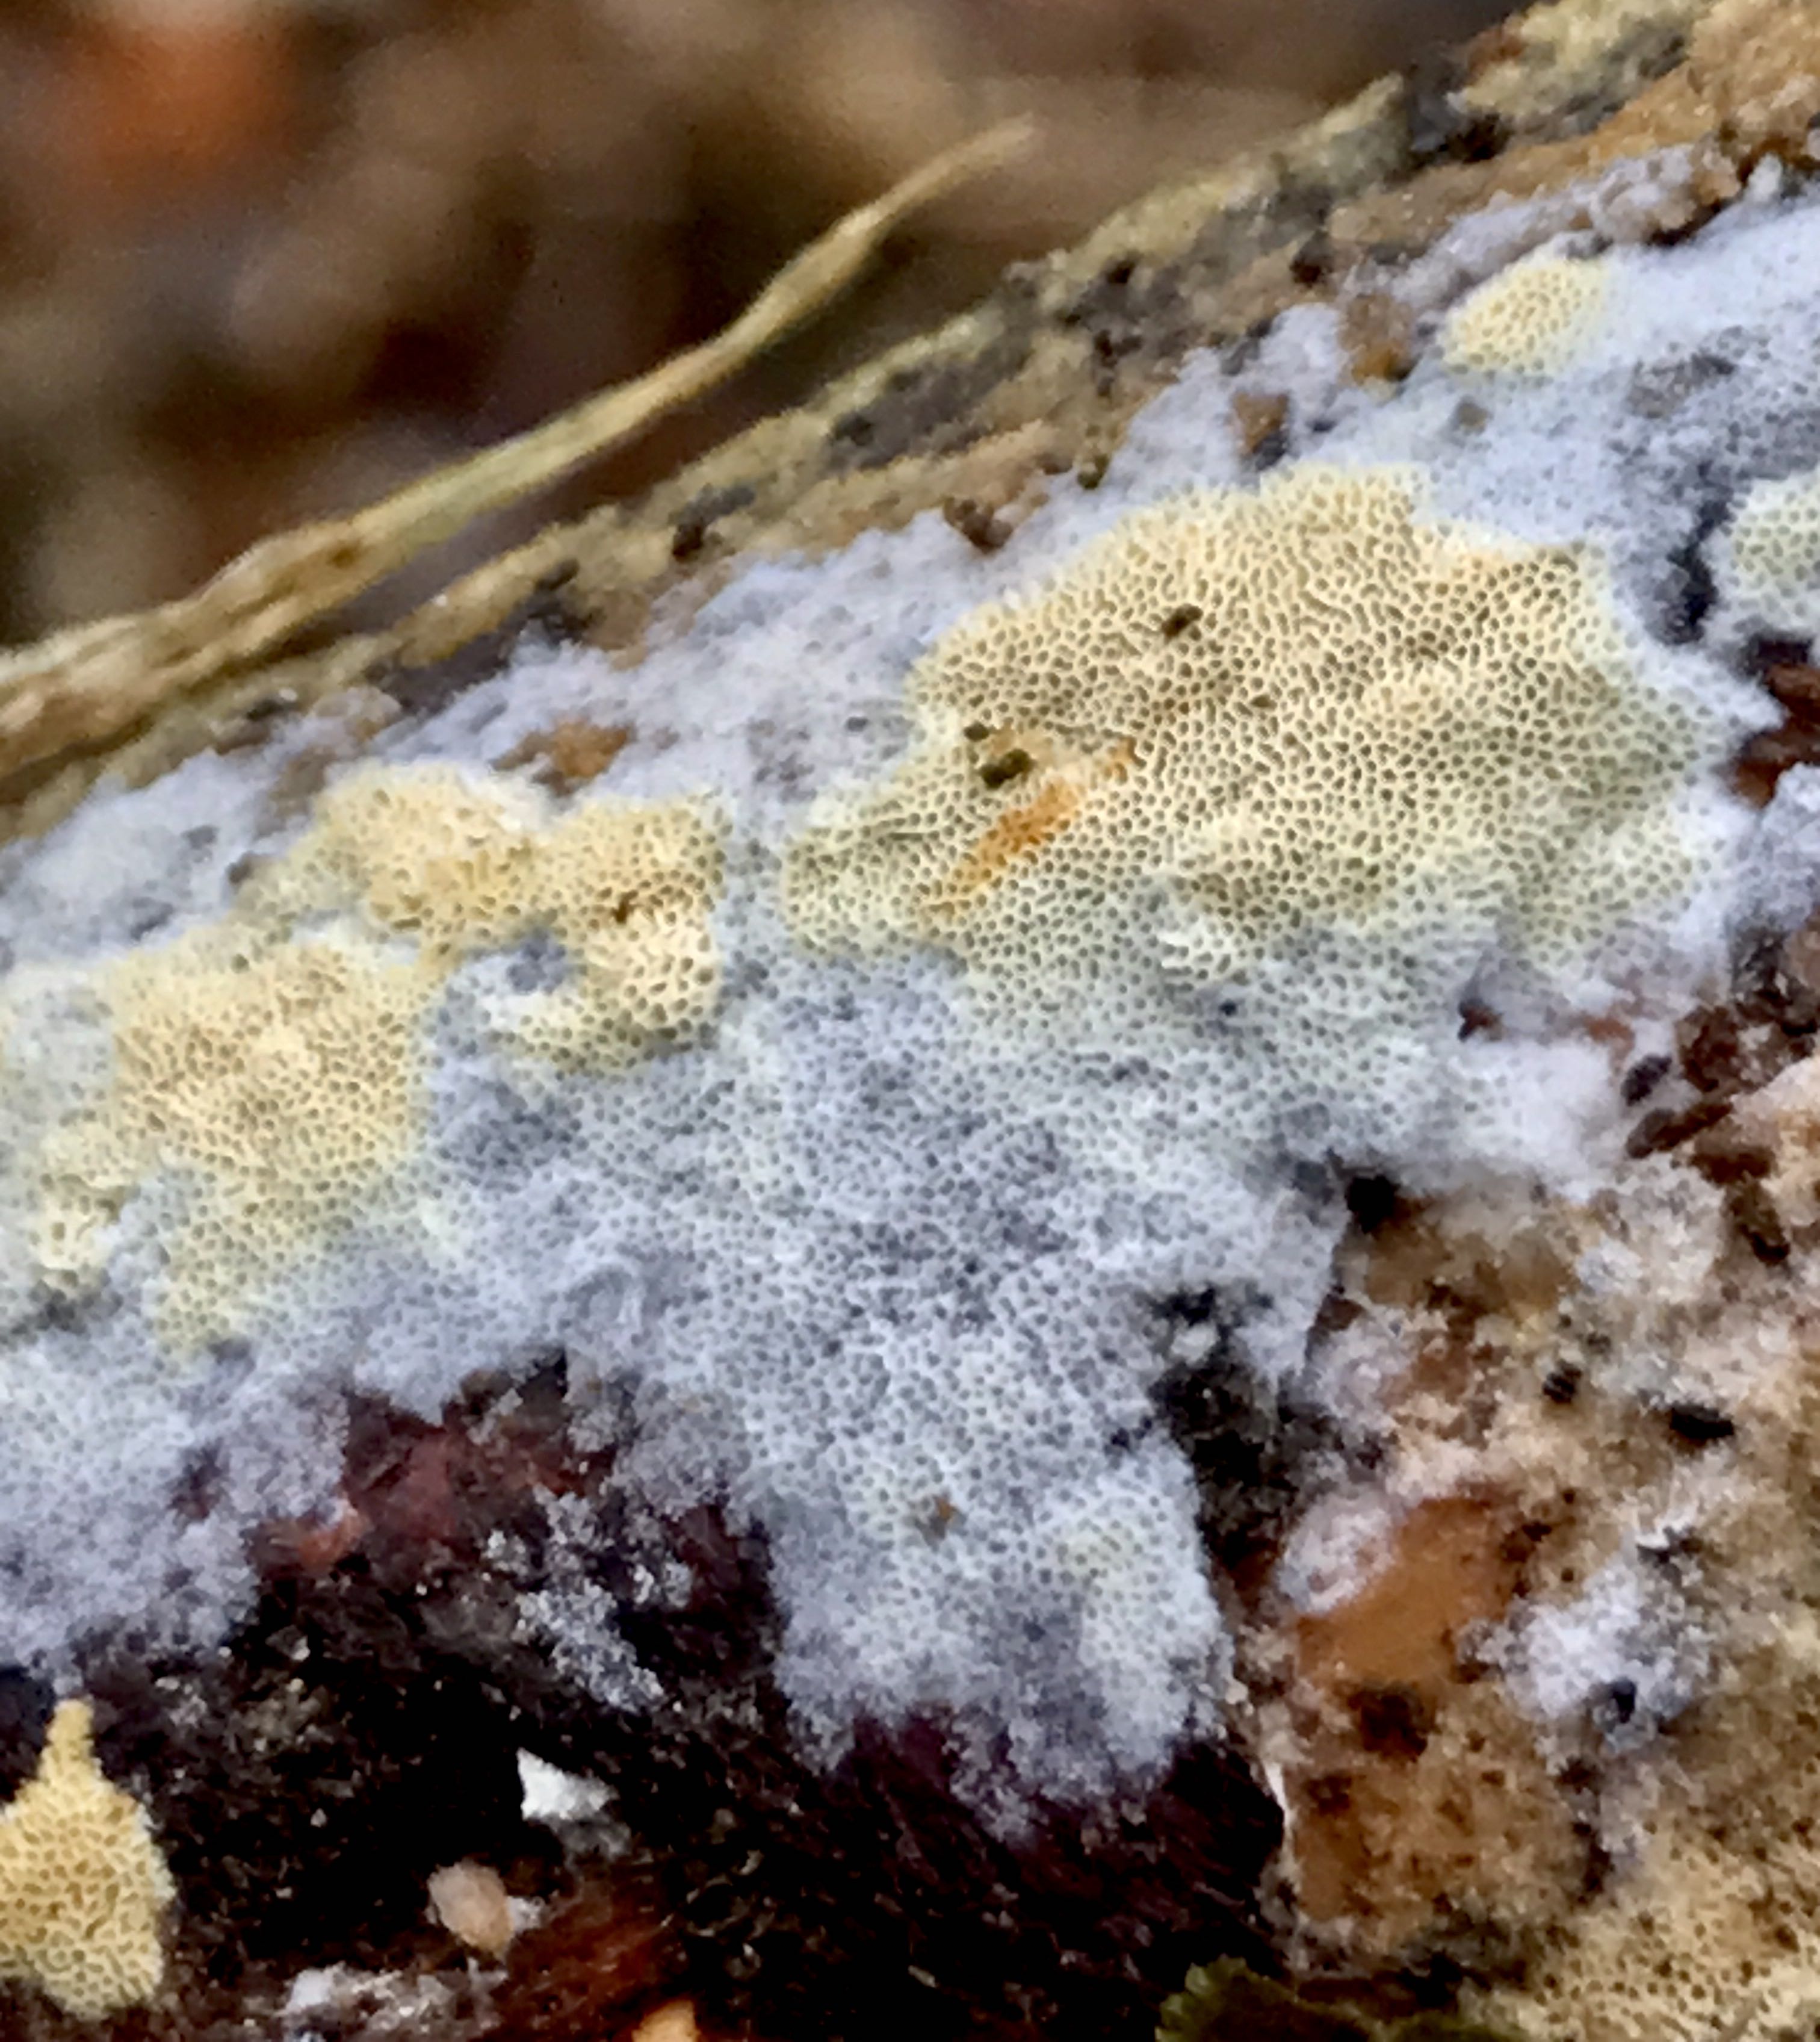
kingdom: Fungi
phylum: Basidiomycota
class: Agaricomycetes
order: Hymenochaetales
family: Schizoporaceae
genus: Xylodon
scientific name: Xylodon
